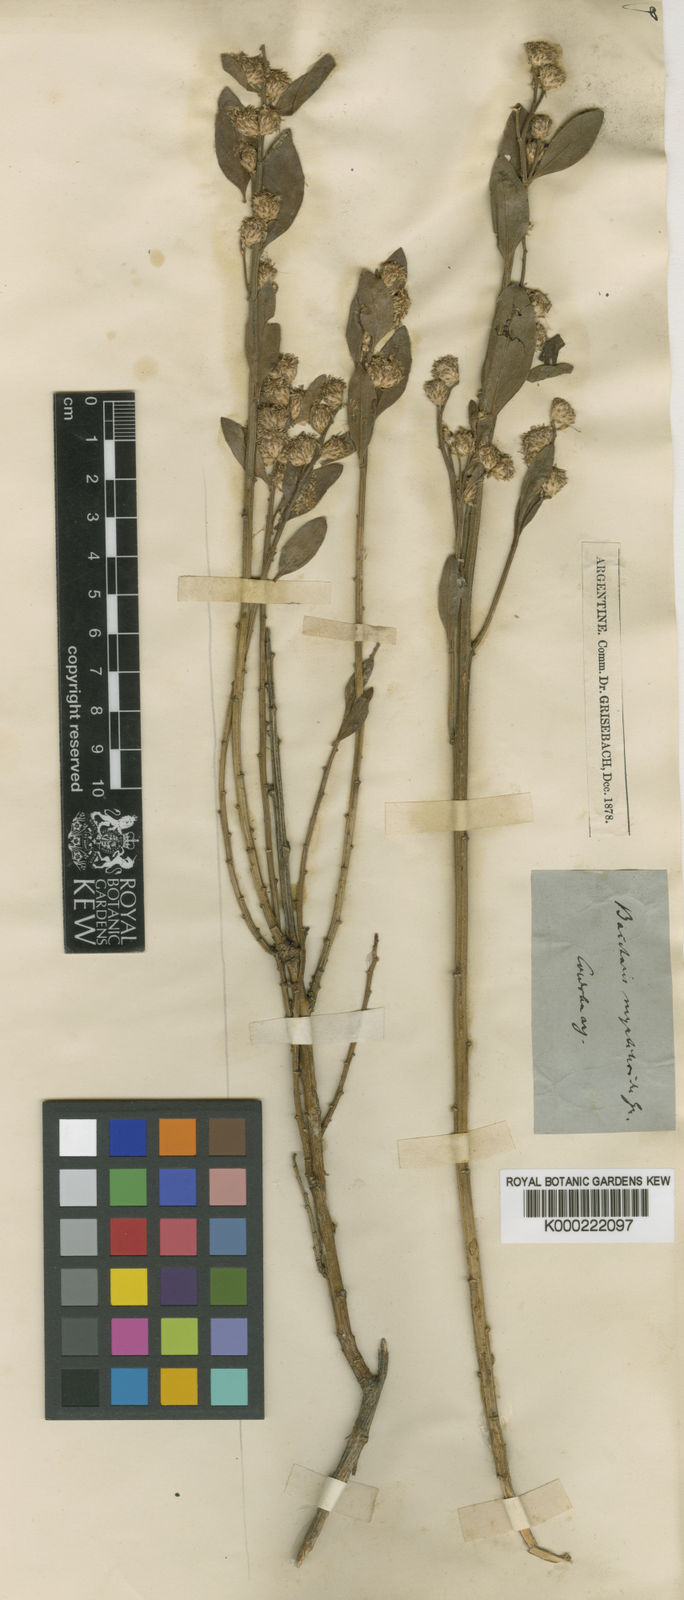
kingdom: Plantae
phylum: Tracheophyta
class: Magnoliopsida
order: Asterales
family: Asteraceae
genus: Baccharis
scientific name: Baccharis tucumanensis
